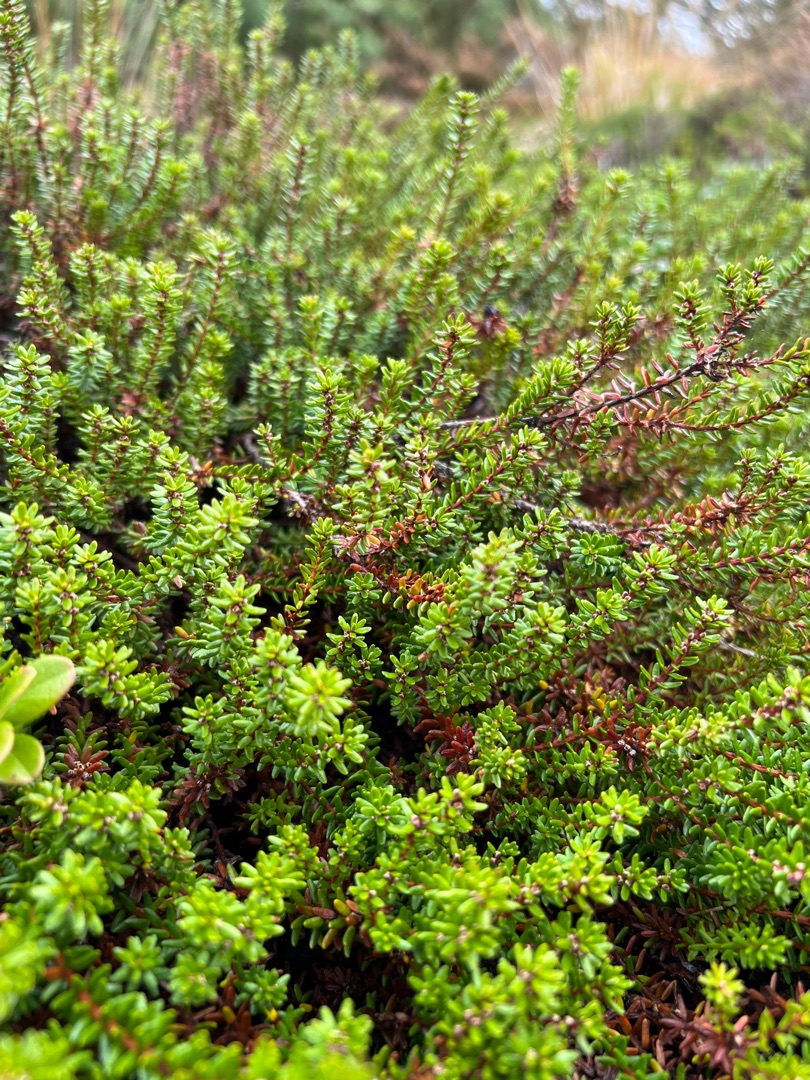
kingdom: Plantae
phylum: Tracheophyta
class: Magnoliopsida
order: Ericales
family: Ericaceae
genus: Empetrum
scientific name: Empetrum nigrum
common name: Revling
